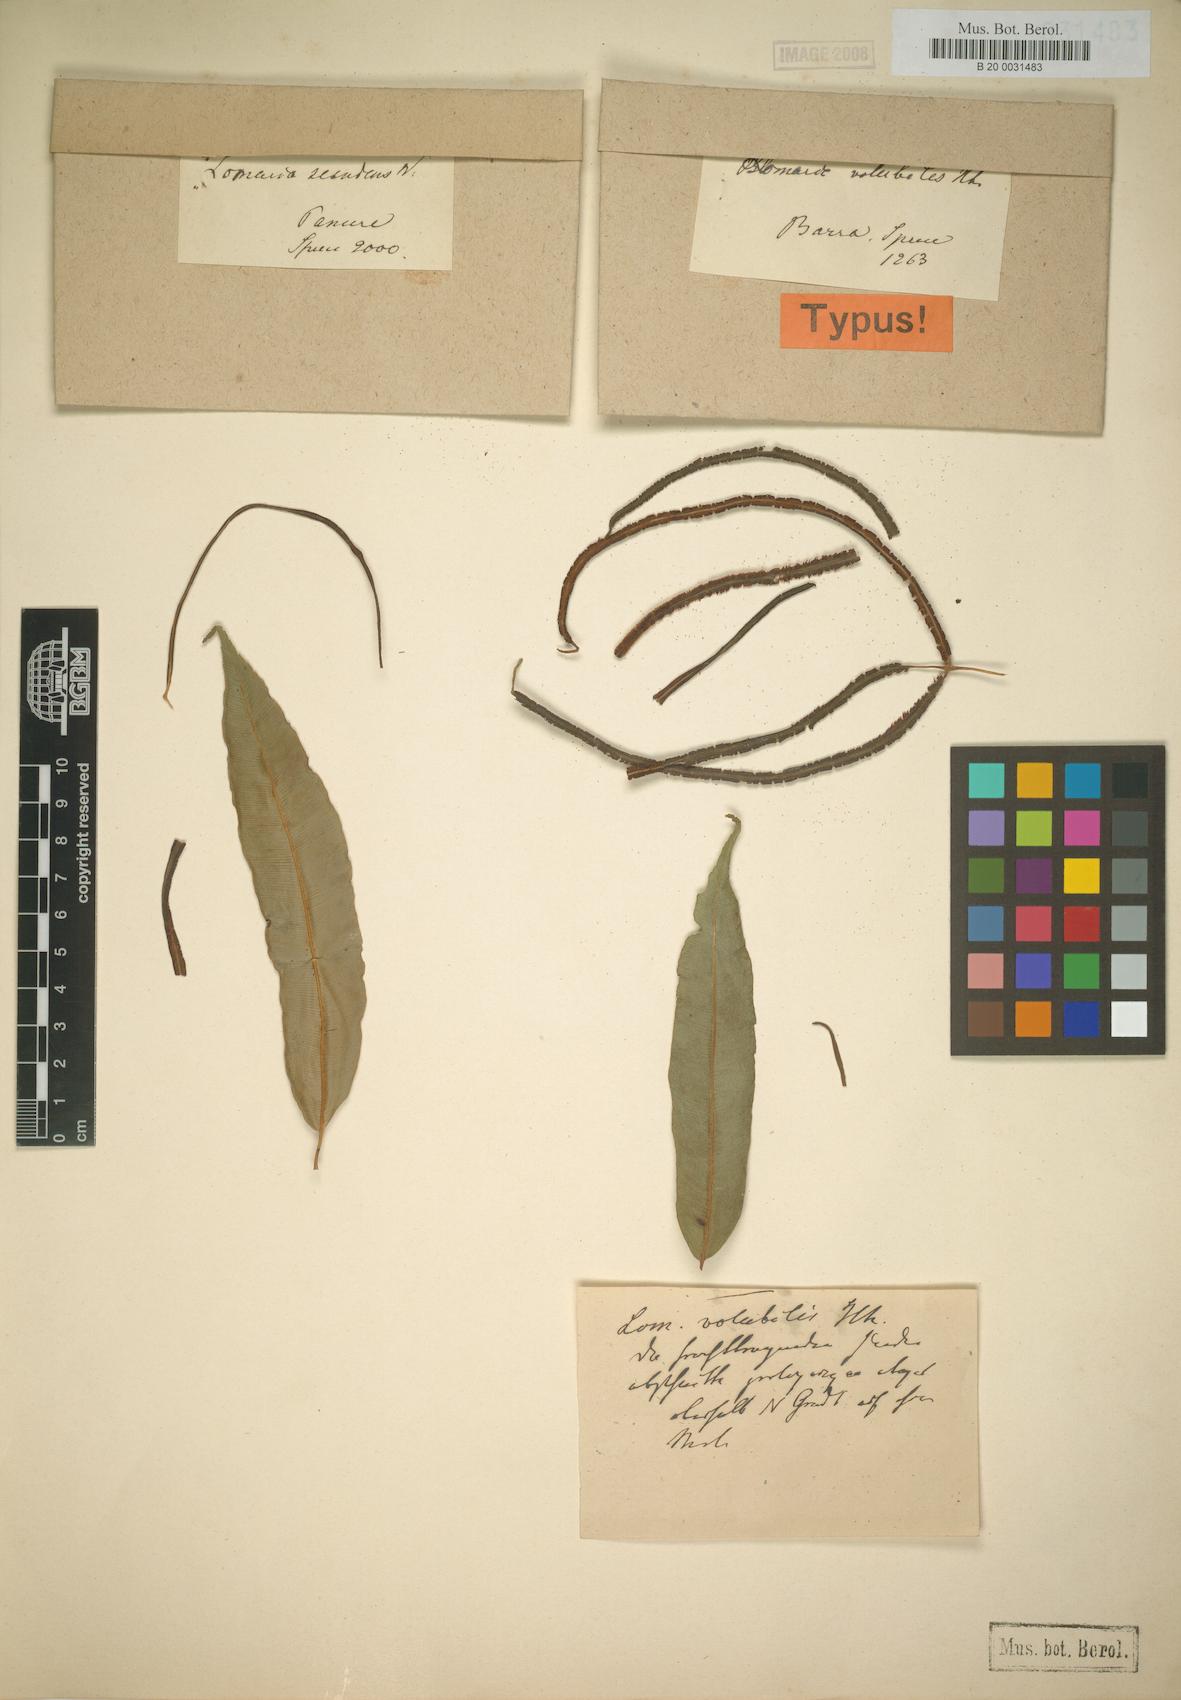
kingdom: Plantae
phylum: Tracheophyta
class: Polypodiopsida
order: Polypodiales
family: Blechnaceae
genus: Salpichlaena
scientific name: Salpichlaena hookeriana
